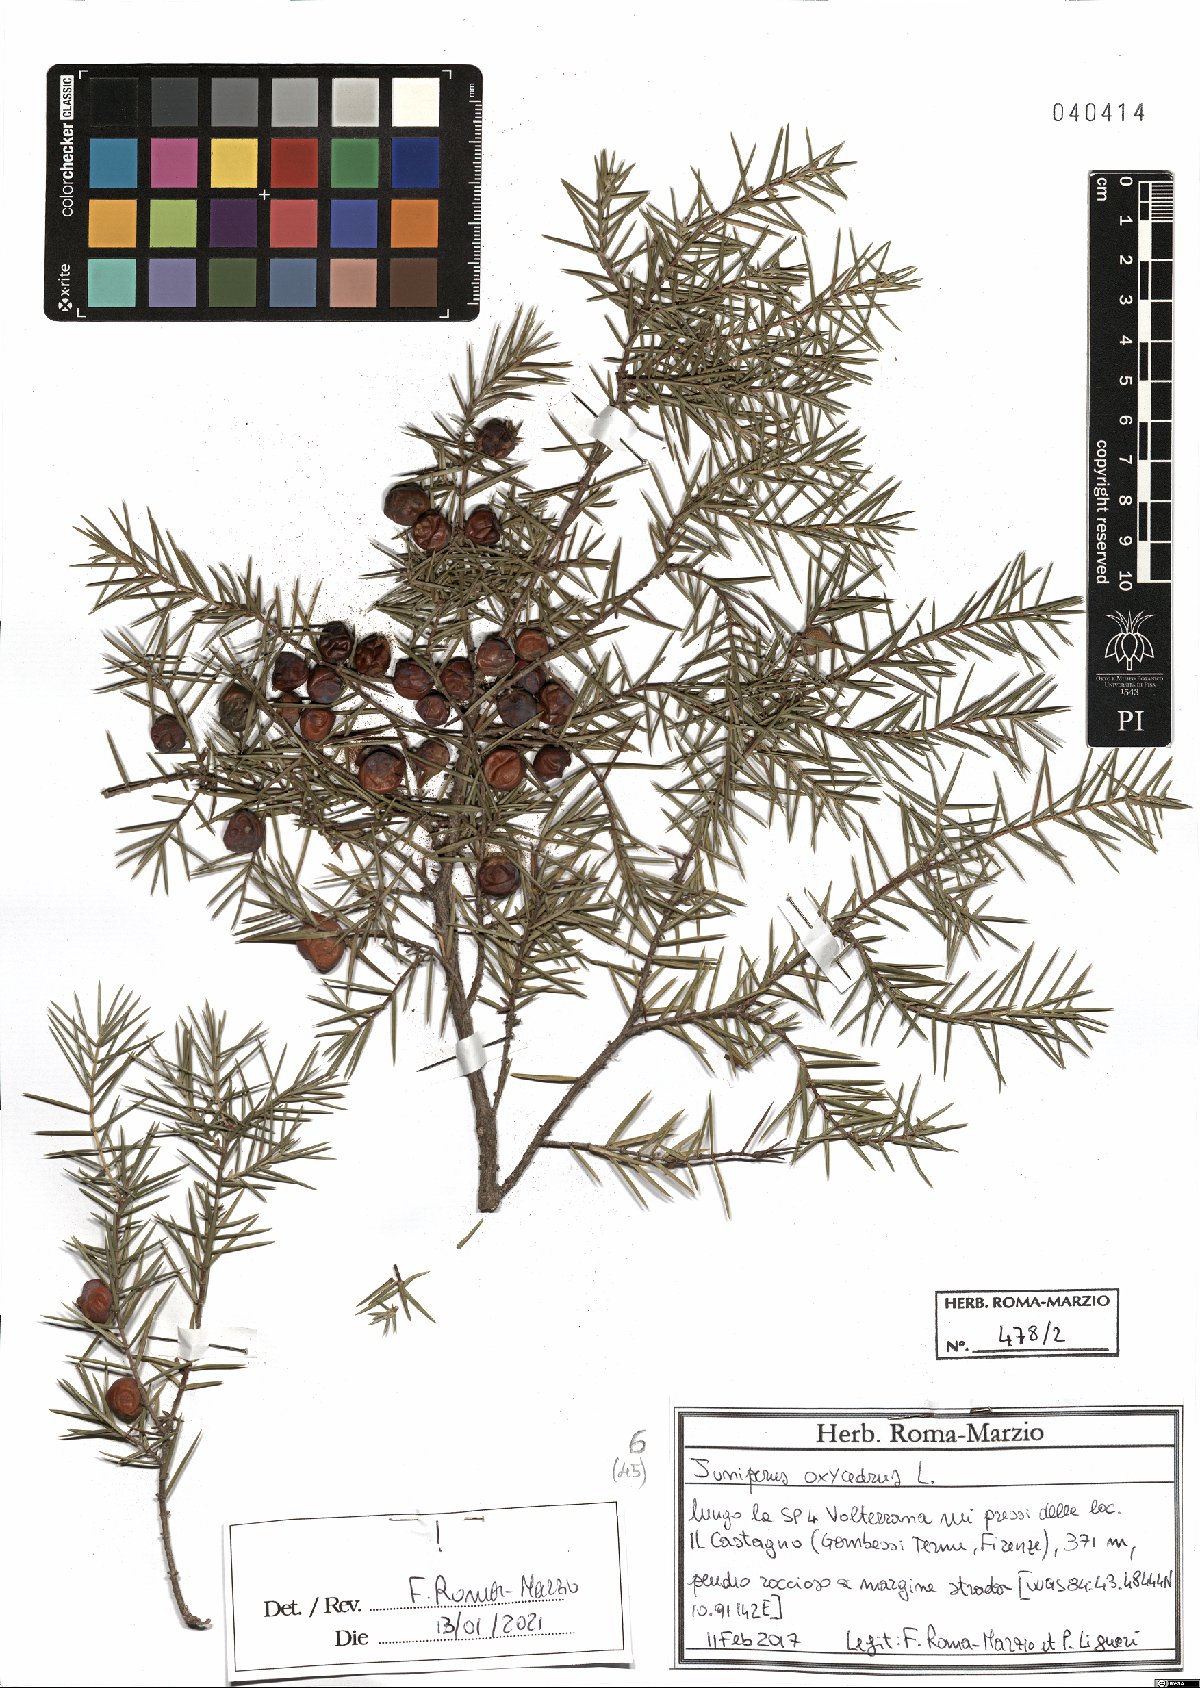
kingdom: Plantae
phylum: Tracheophyta
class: Pinopsida
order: Pinales
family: Cupressaceae
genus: Juniperus
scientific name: Juniperus oxycedrus
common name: Prickly juniper
